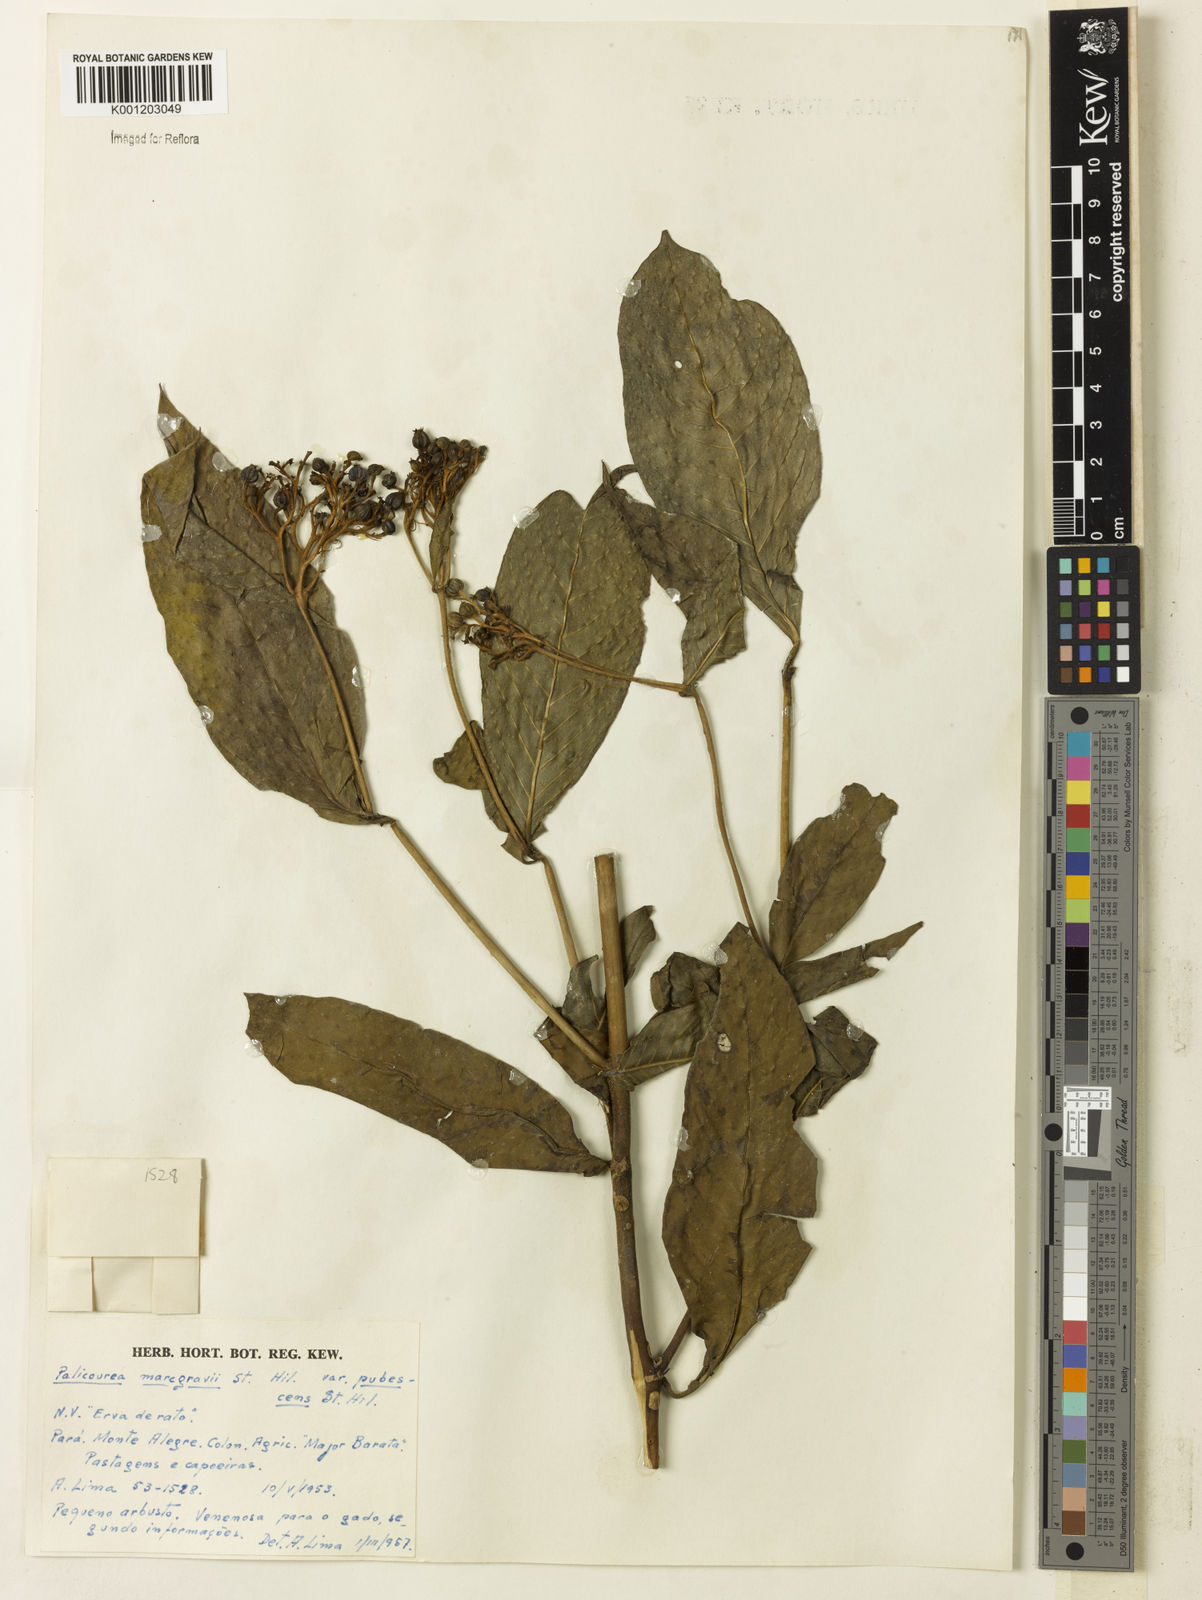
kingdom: Plantae
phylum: Tracheophyta
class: Magnoliopsida
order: Gentianales
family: Rubiaceae
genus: Palicourea
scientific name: Palicourea marcgravii
